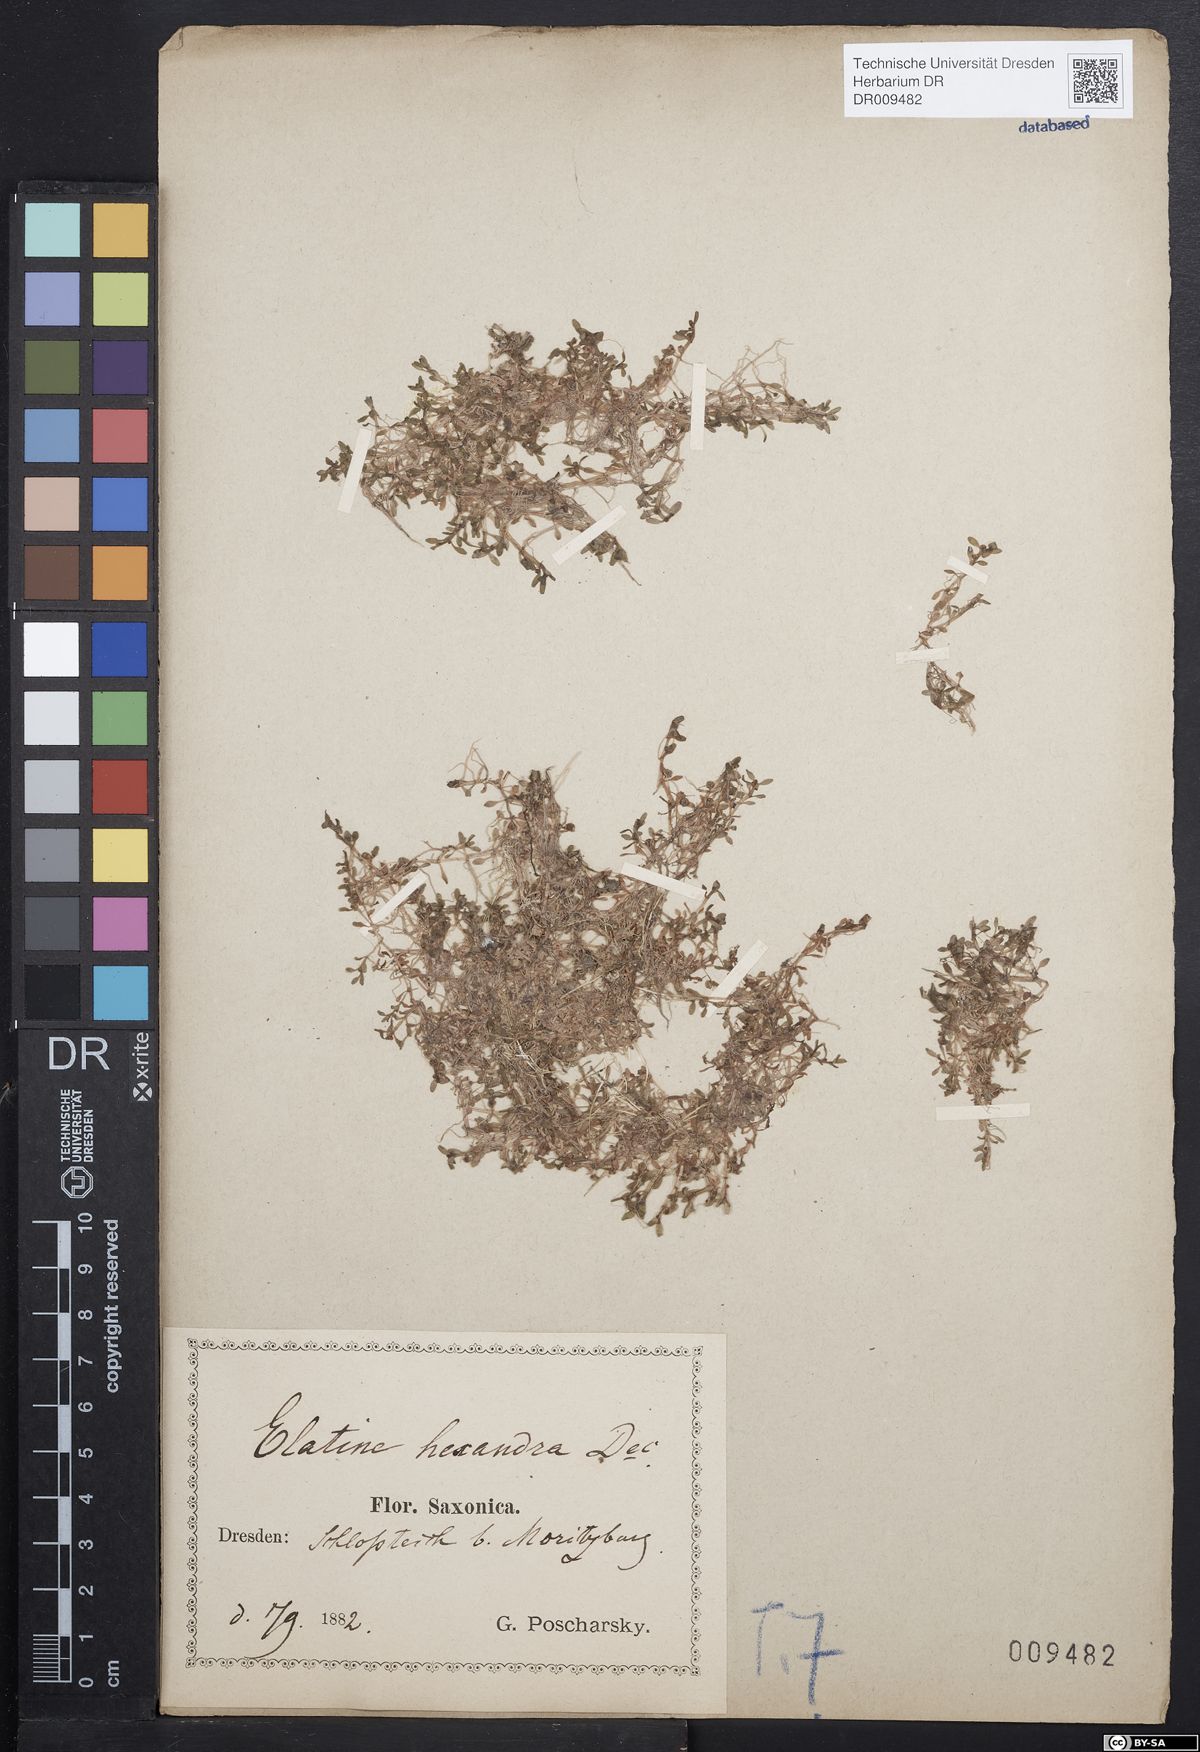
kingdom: Plantae
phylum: Tracheophyta
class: Magnoliopsida
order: Malpighiales
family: Elatinaceae
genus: Elatine
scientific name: Elatine hexandra
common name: Six-stamened waterwort
